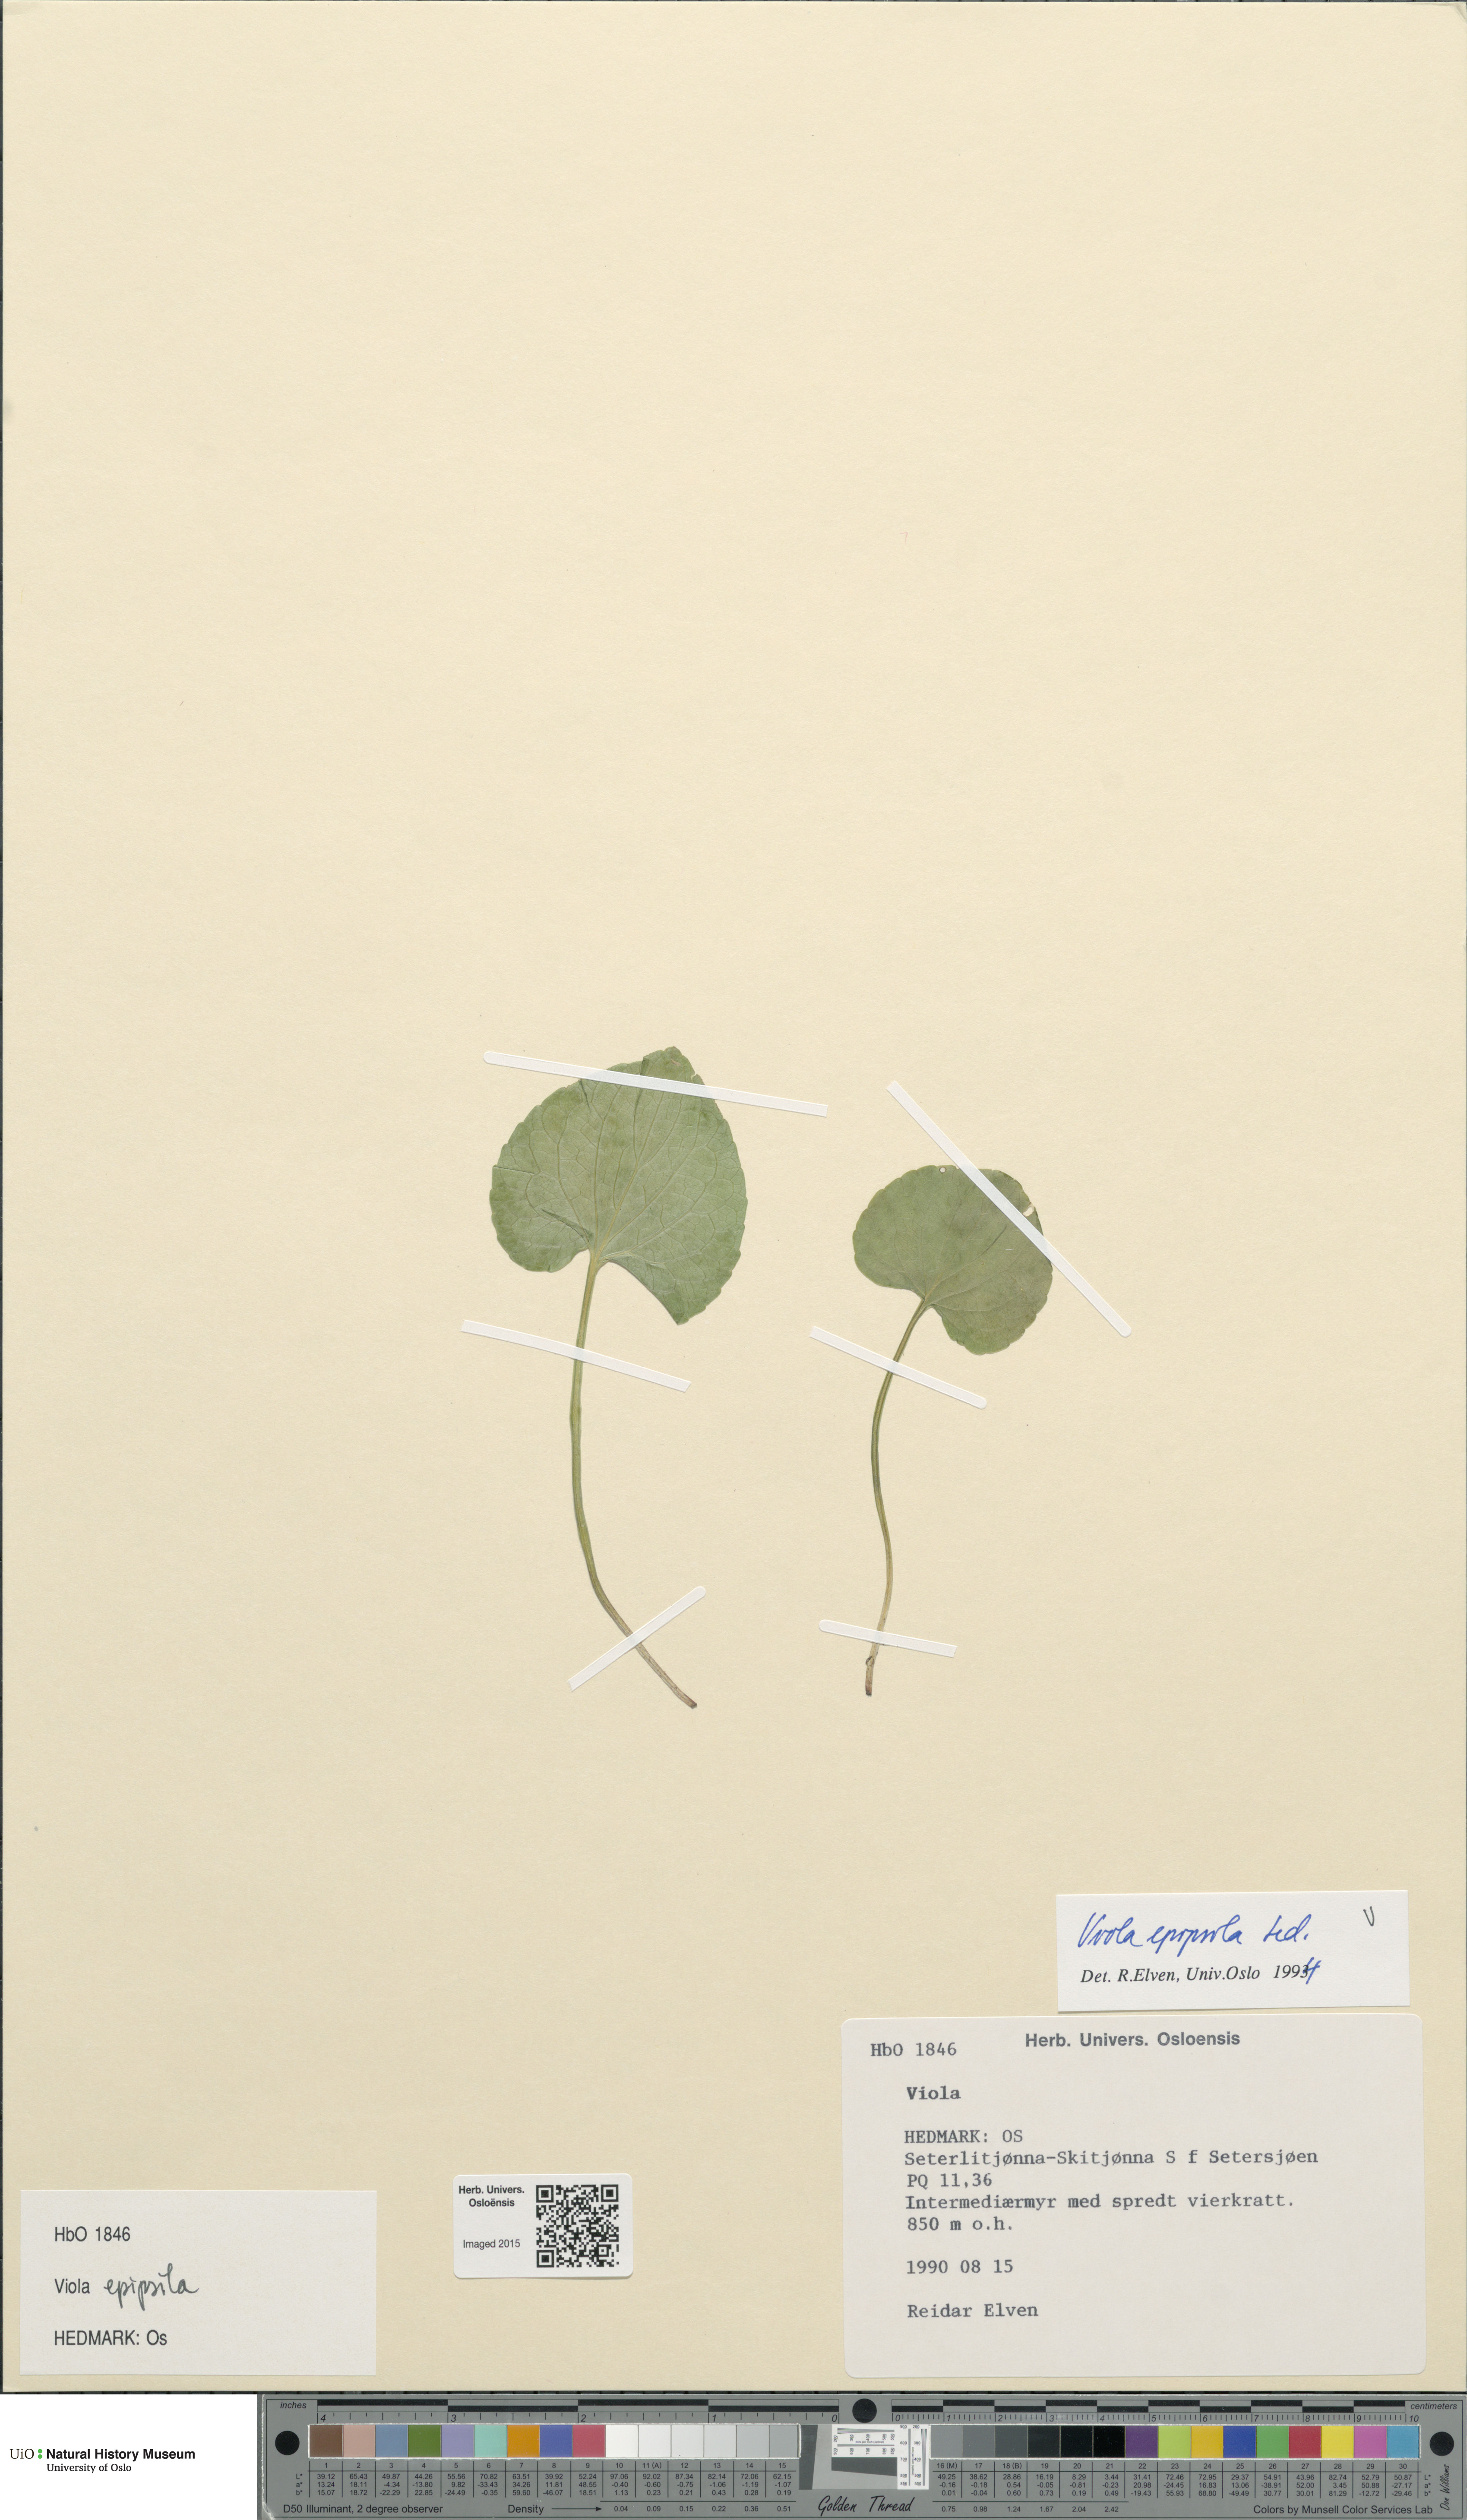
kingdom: Plantae
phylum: Tracheophyta
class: Magnoliopsida
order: Malpighiales
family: Violaceae
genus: Viola
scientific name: Viola epipsila
